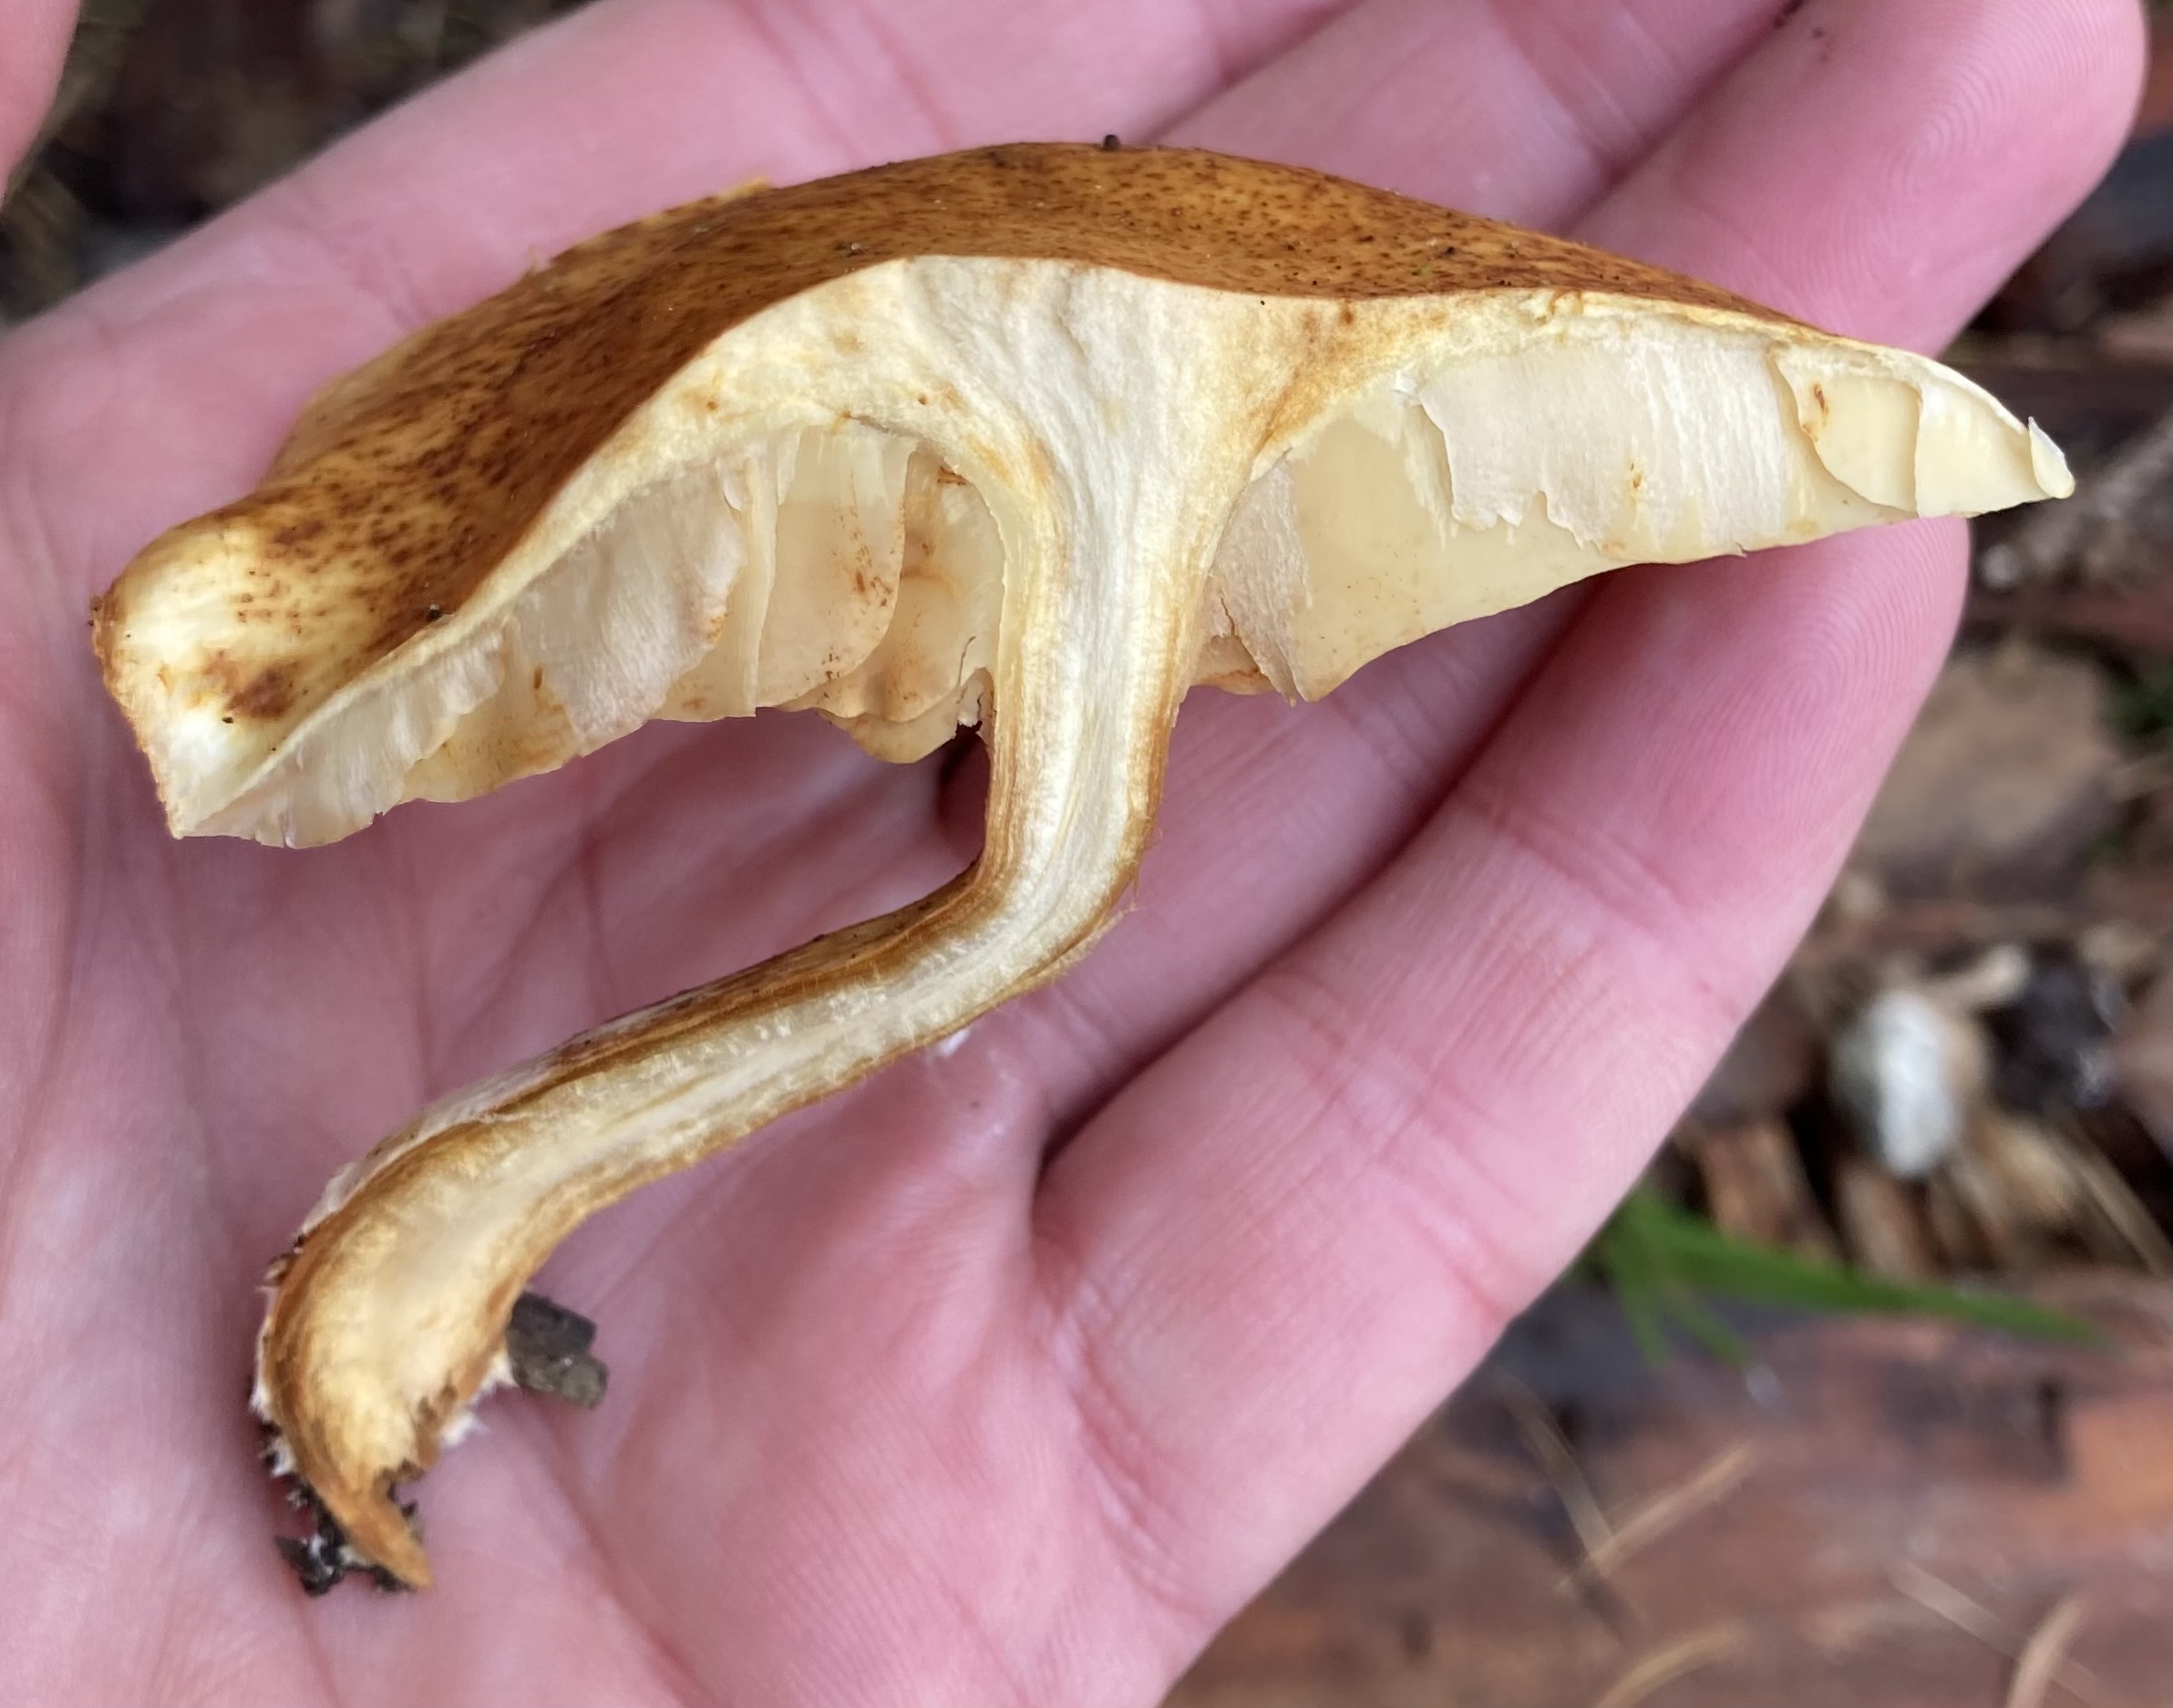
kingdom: Fungi
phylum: Basidiomycota
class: Agaricomycetes
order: Agaricales
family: Hymenogastraceae
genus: Gymnopilus
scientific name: Gymnopilus penetrans
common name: plettet flammehat
